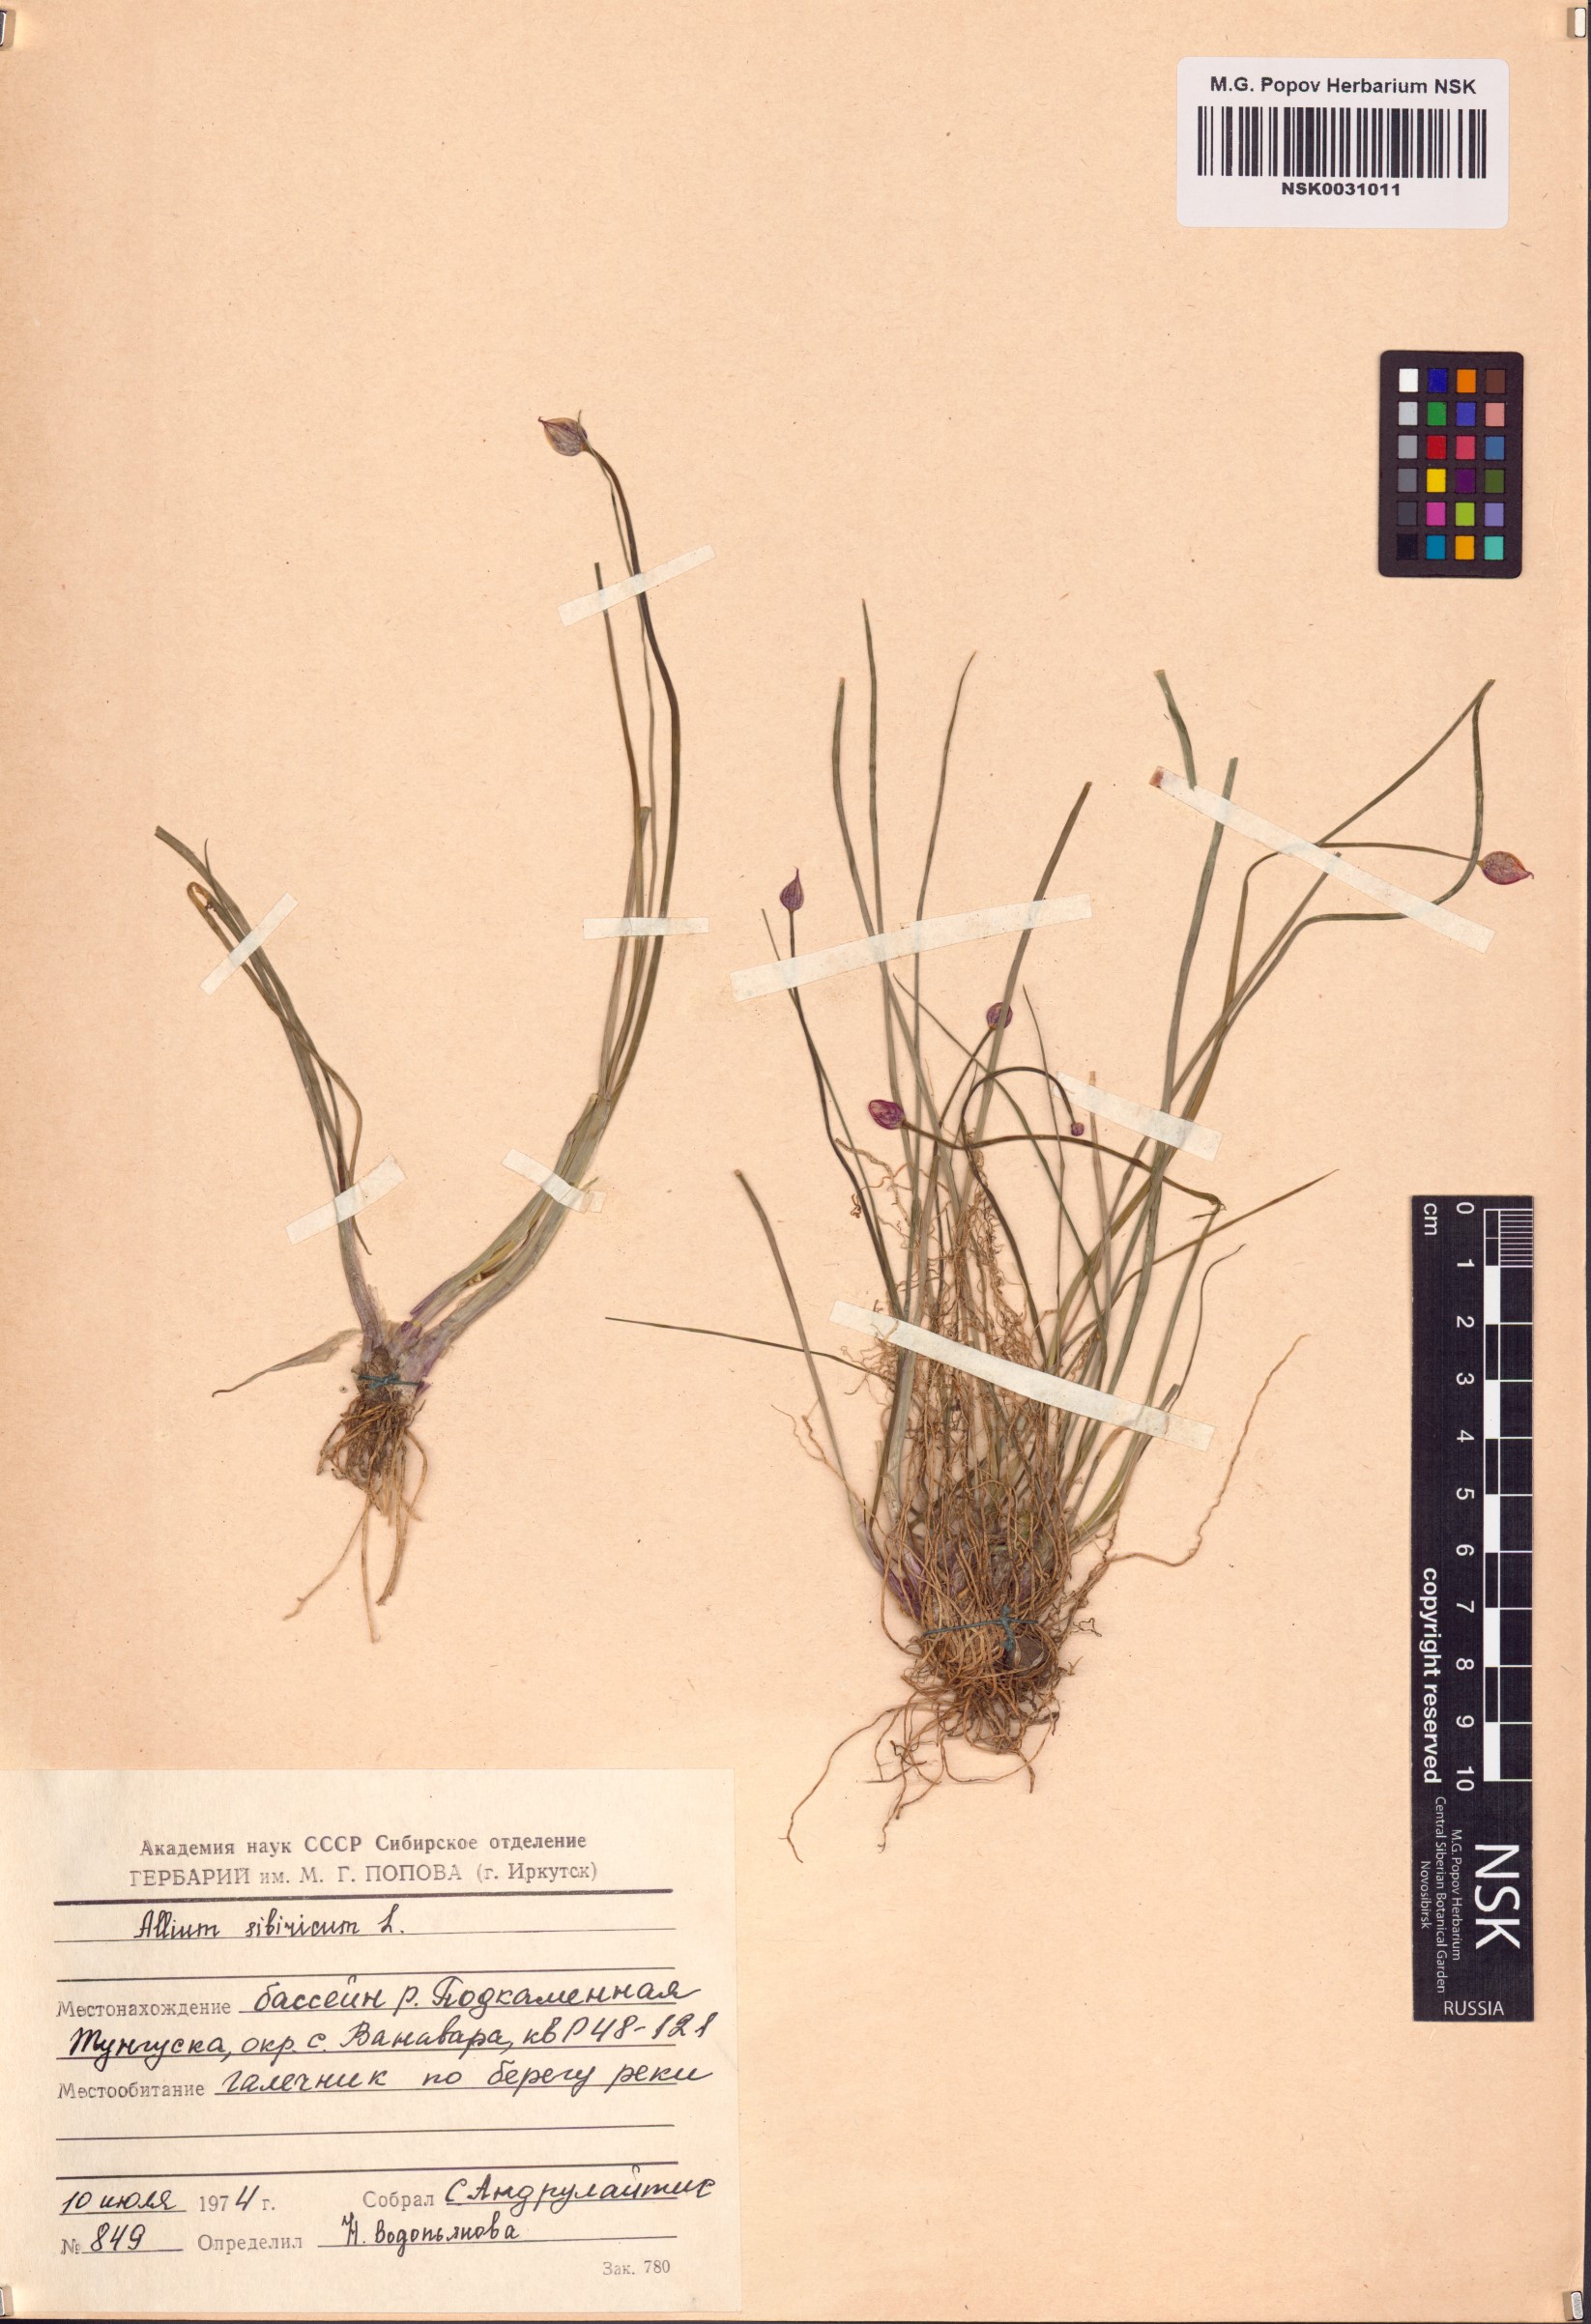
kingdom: Plantae
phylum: Tracheophyta
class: Liliopsida
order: Asparagales
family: Amaryllidaceae
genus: Allium
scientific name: Allium schoenoprasum
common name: Chives
